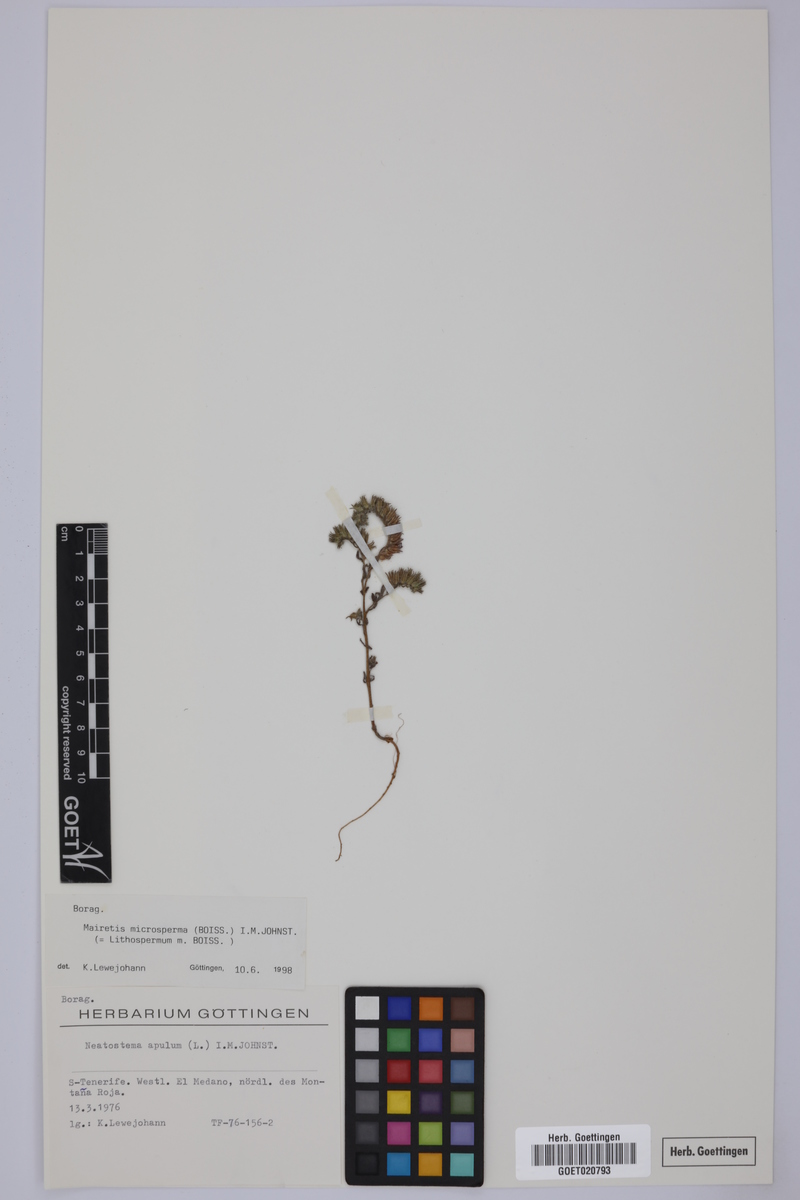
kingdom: Plantae
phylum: Tracheophyta
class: Magnoliopsida
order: Boraginales
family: Boraginaceae
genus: Mairetis
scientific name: Mairetis microsperma
